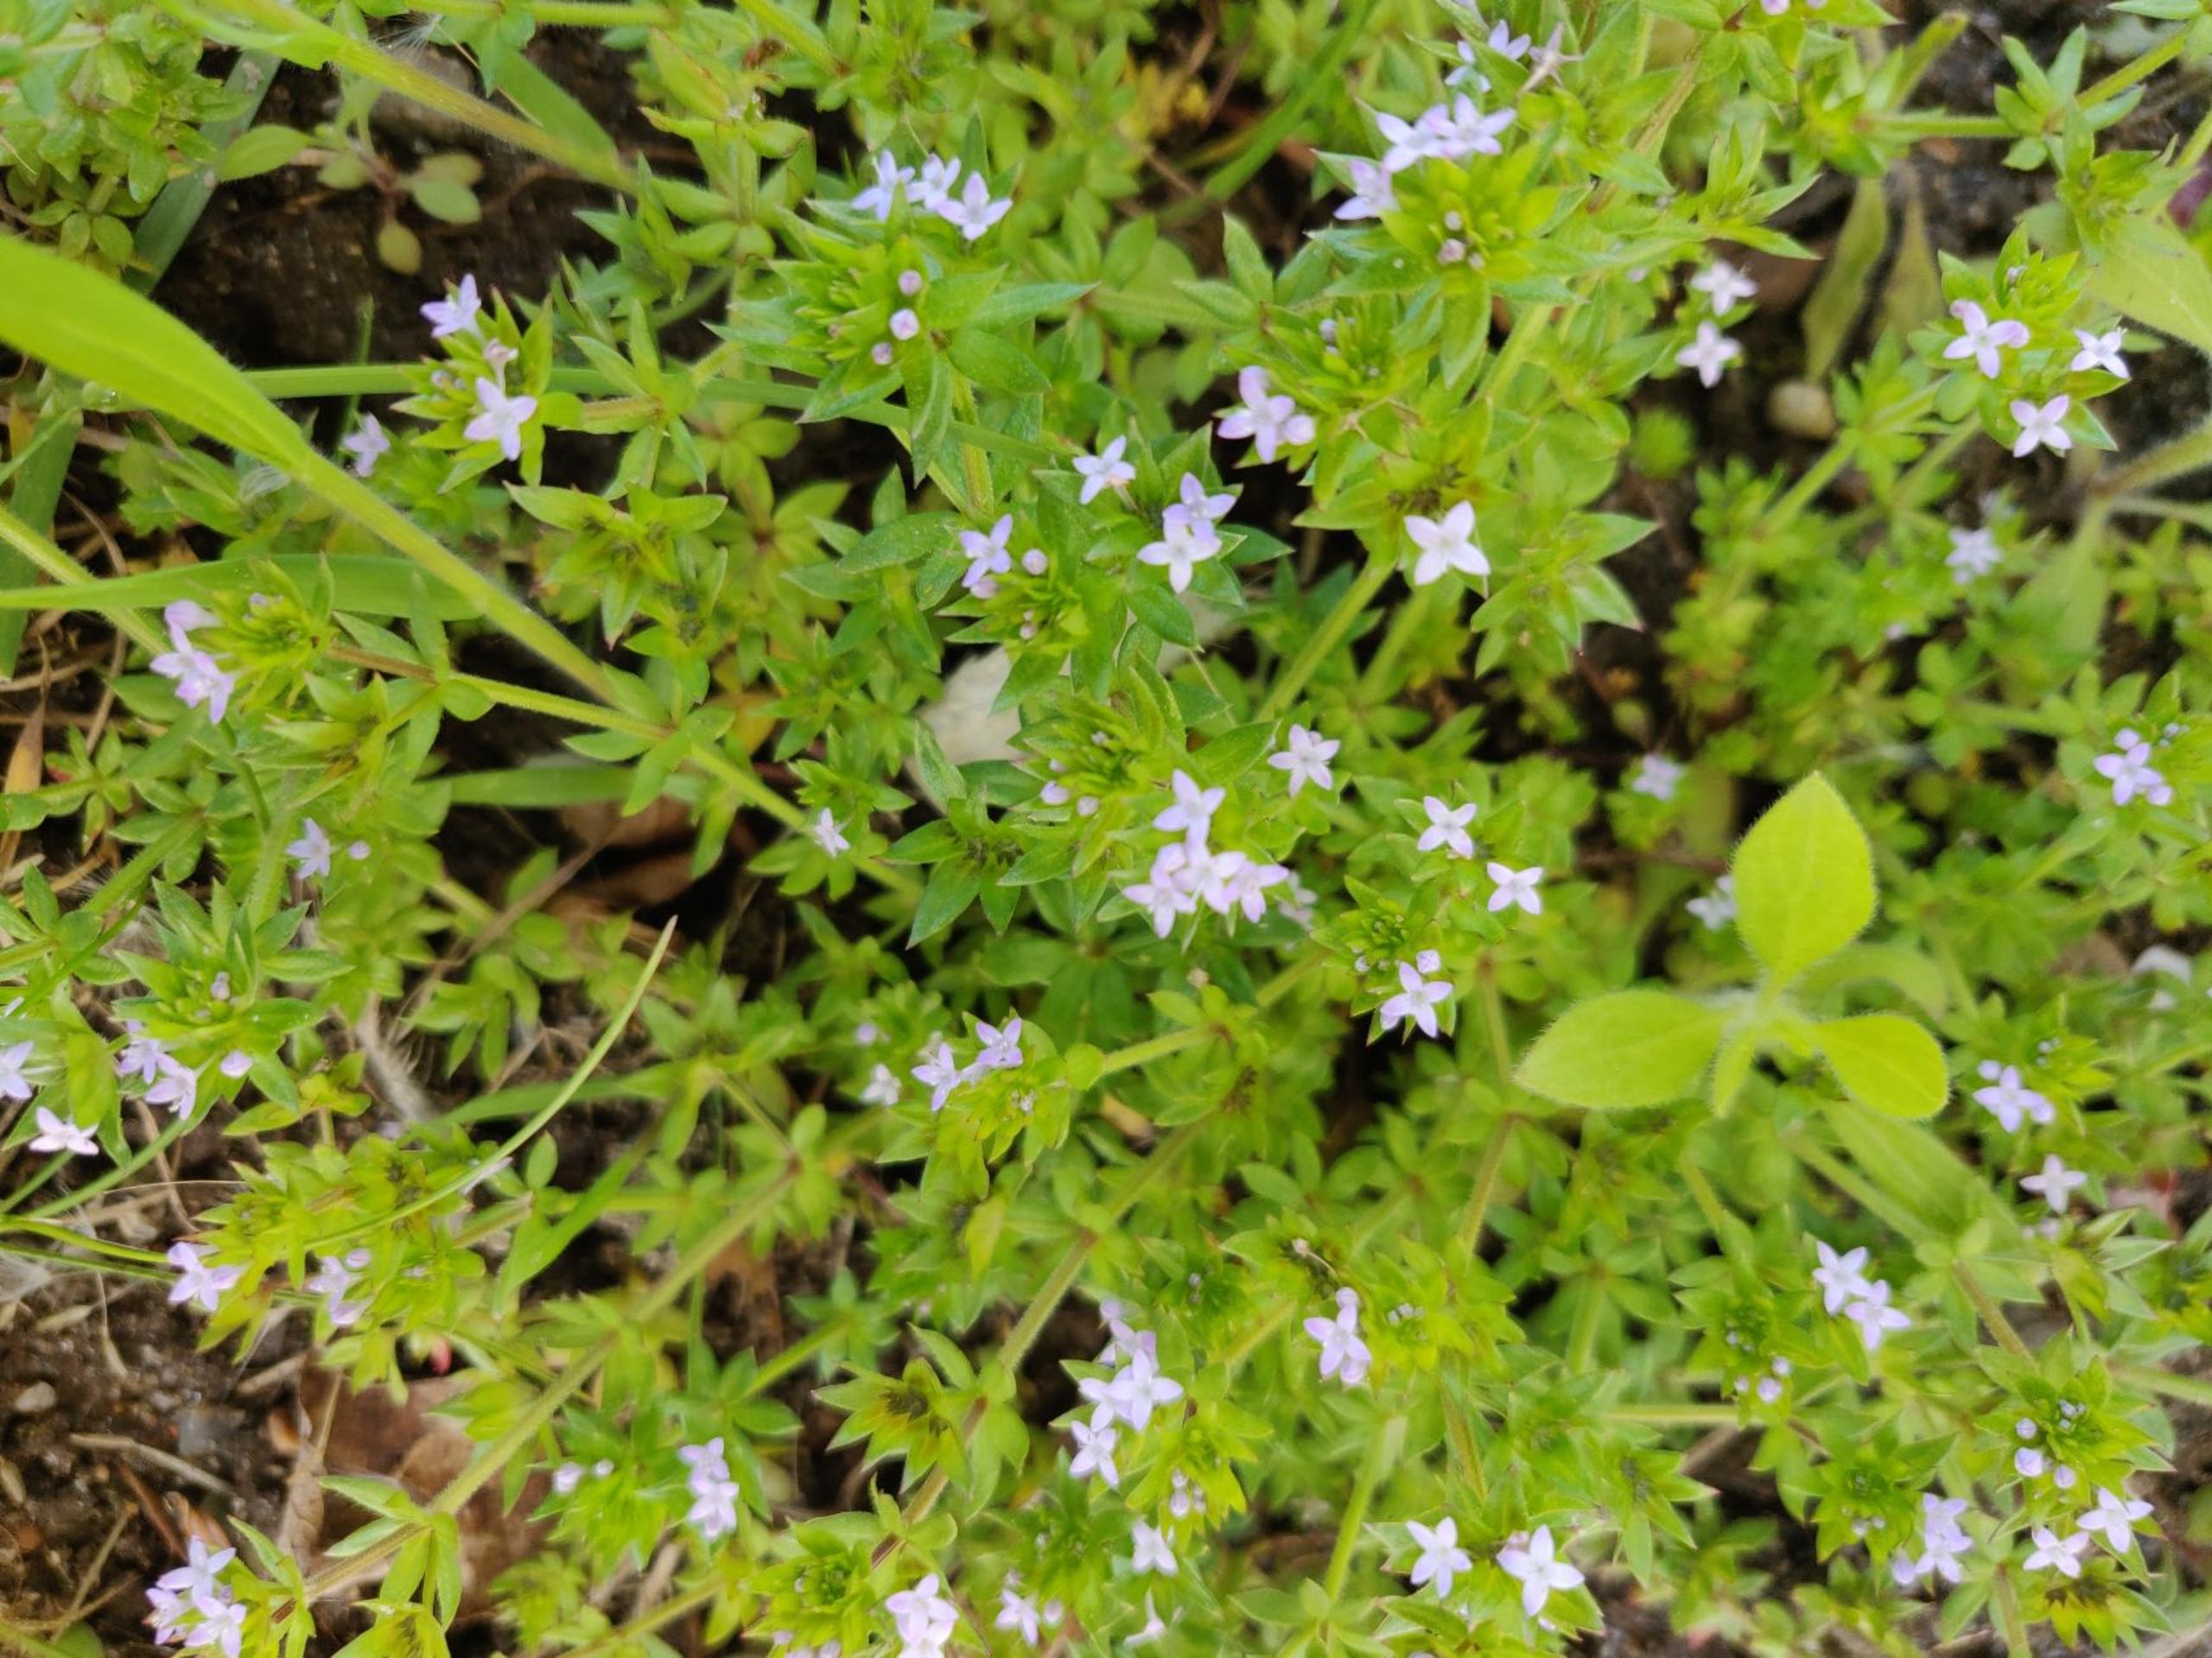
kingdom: Plantae
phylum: Tracheophyta
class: Magnoliopsida
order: Gentianales
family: Rubiaceae
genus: Sherardia
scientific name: Sherardia arvensis
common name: Blåstjerne
